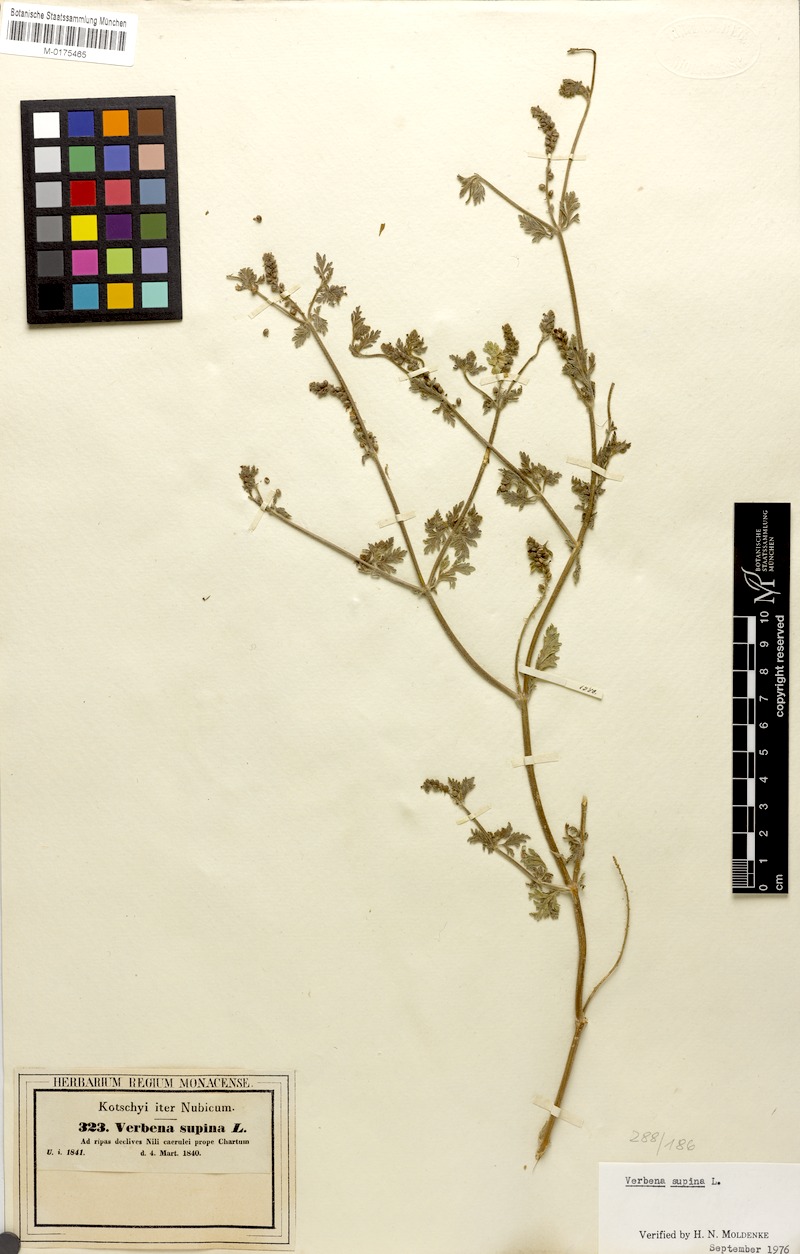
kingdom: Plantae
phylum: Tracheophyta
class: Magnoliopsida
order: Lamiales
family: Verbenaceae
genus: Verbena
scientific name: Verbena supina
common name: Trailing vervain
